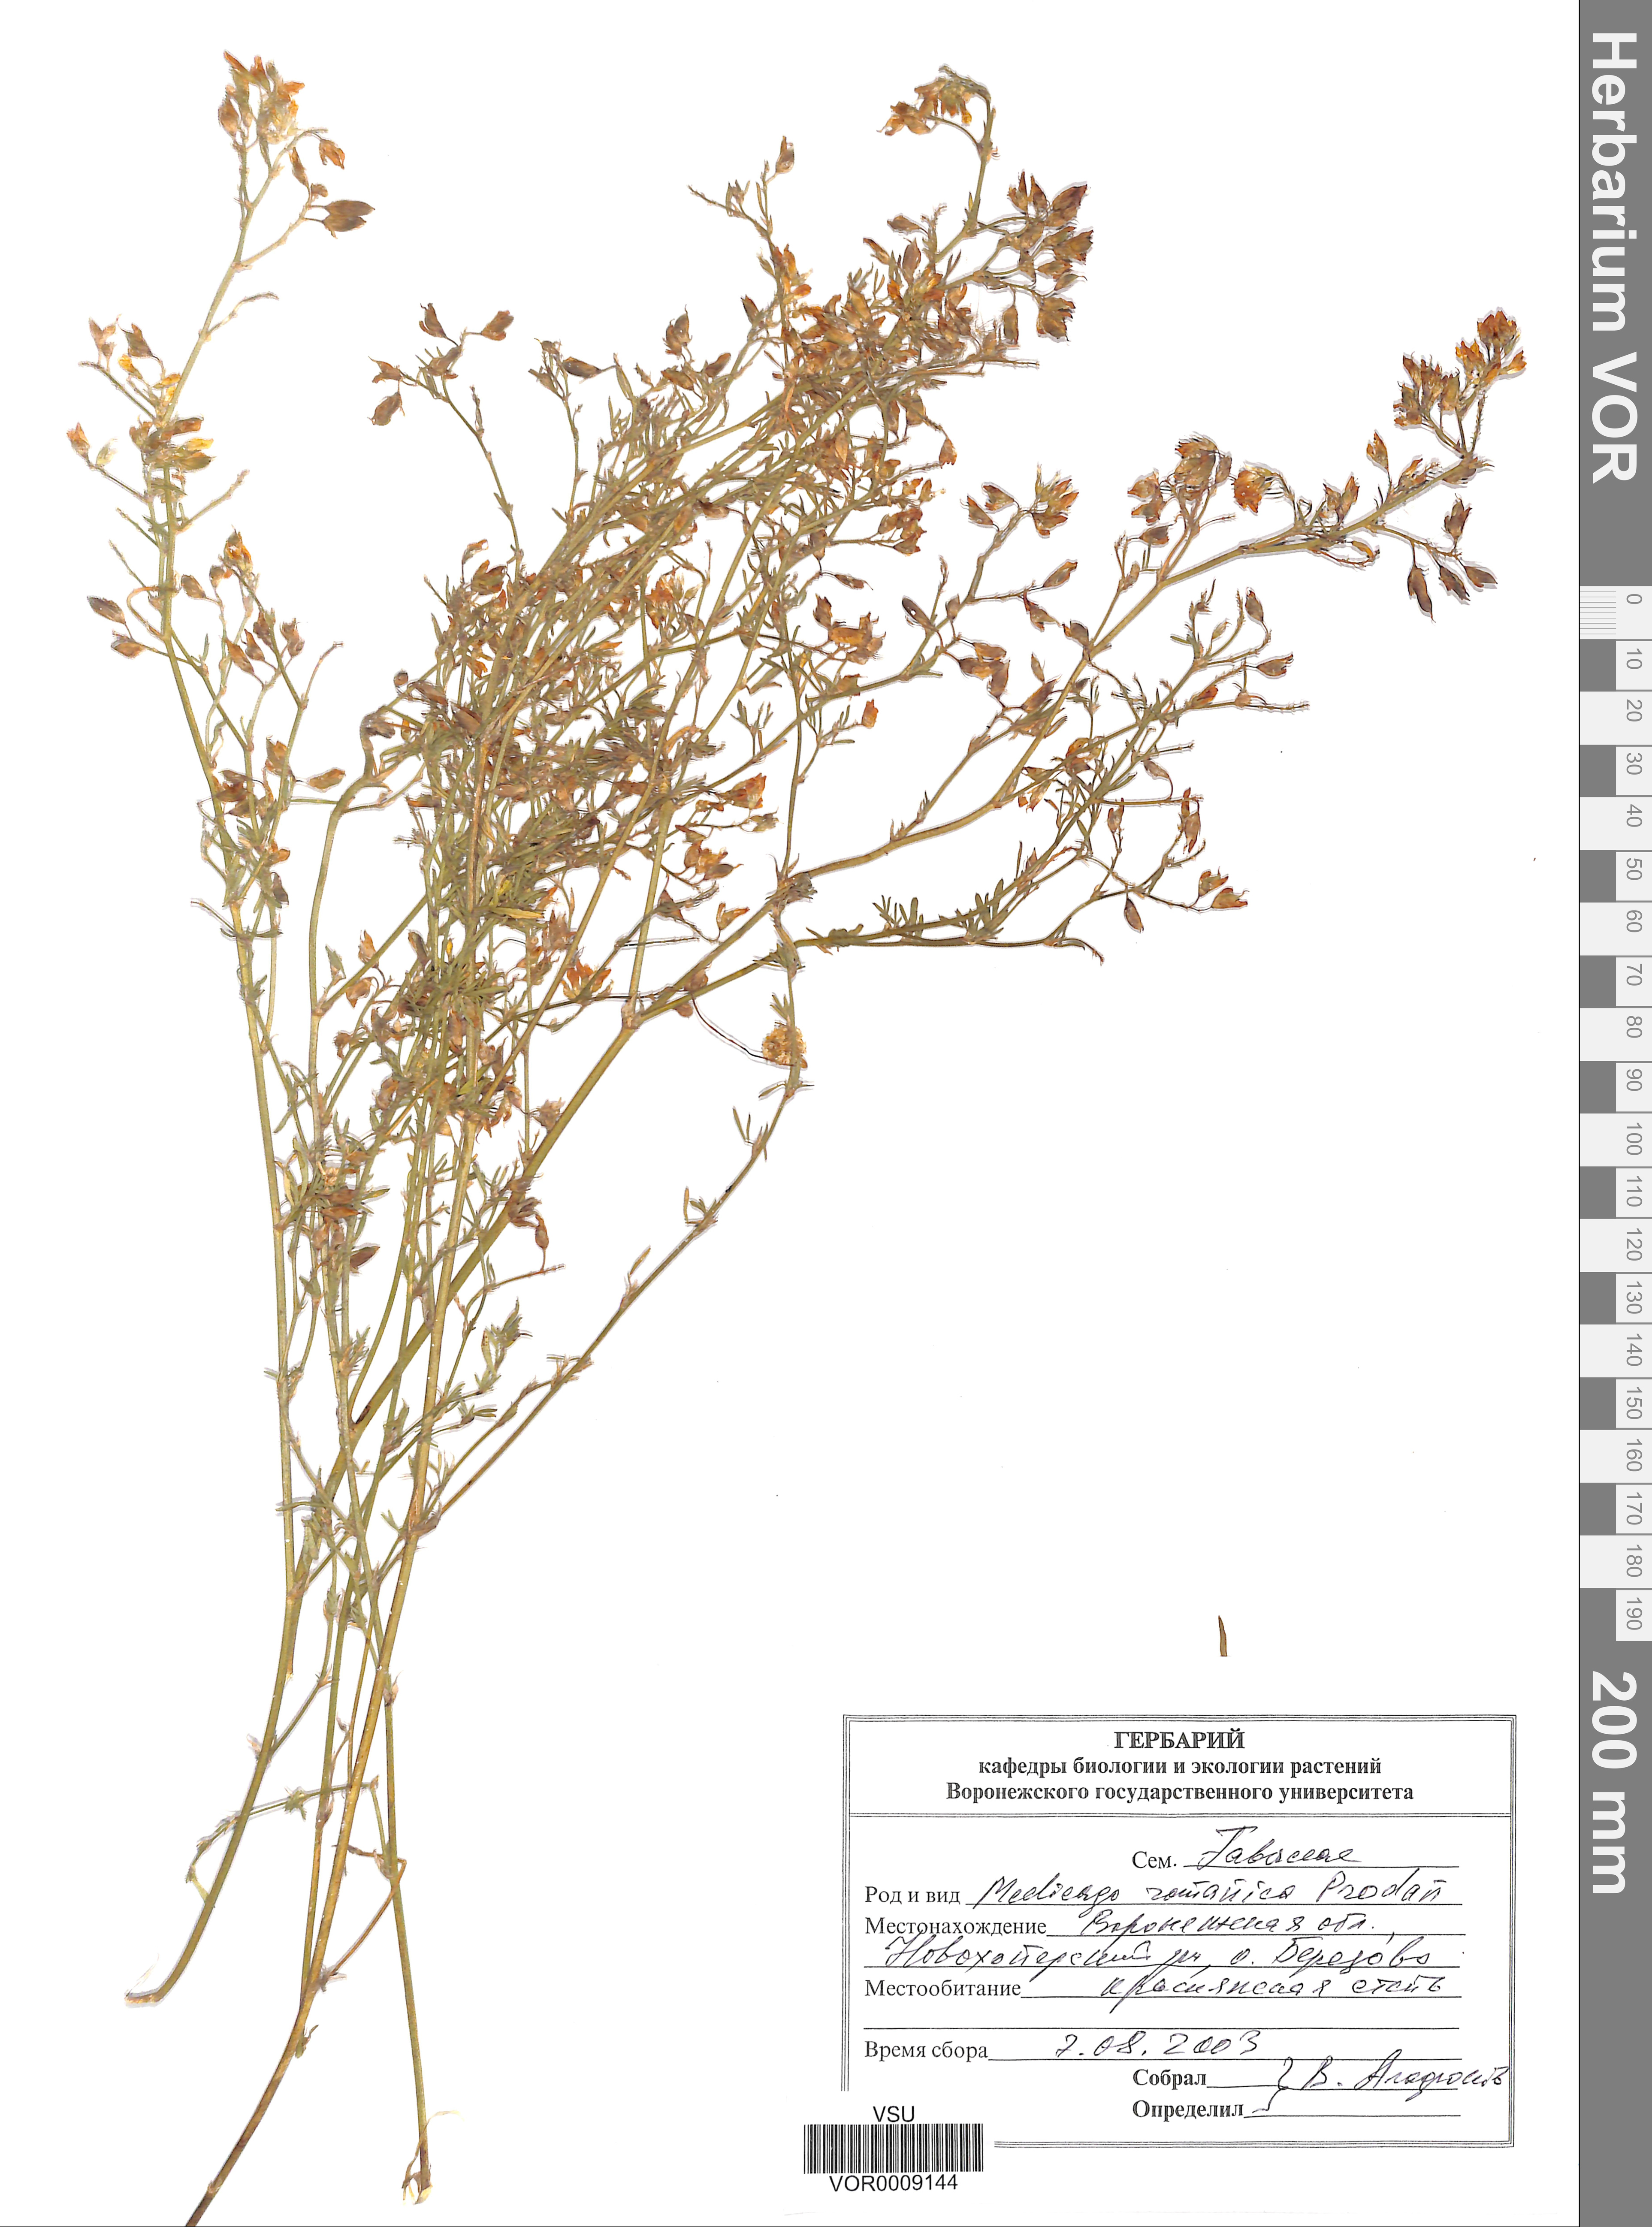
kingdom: Plantae
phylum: Tracheophyta
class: Magnoliopsida
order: Fabales
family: Fabaceae
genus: Medicago
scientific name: Medicago falcata
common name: Sickle medick
